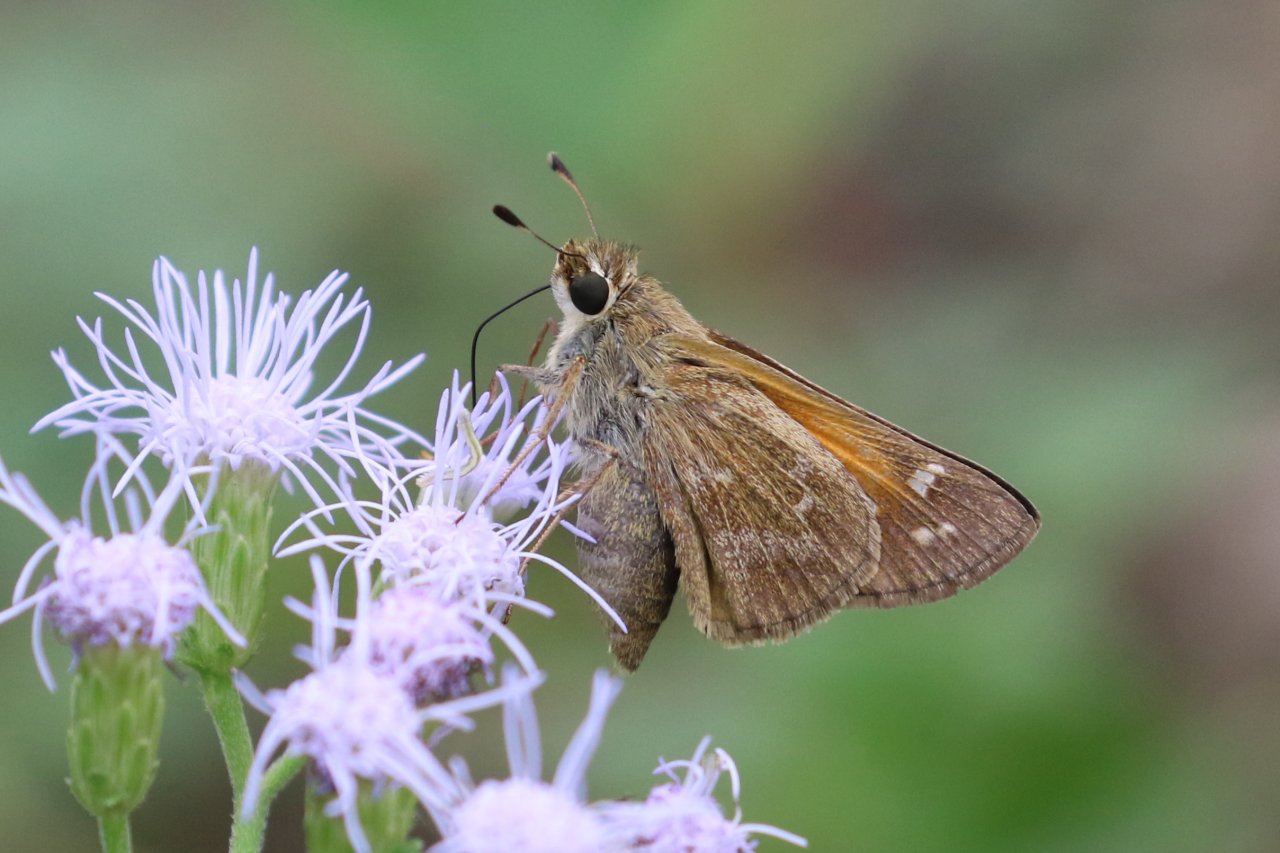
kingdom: Animalia
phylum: Arthropoda
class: Insecta
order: Lepidoptera
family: Hesperiidae
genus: Atalopedes
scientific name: Atalopedes campestris
